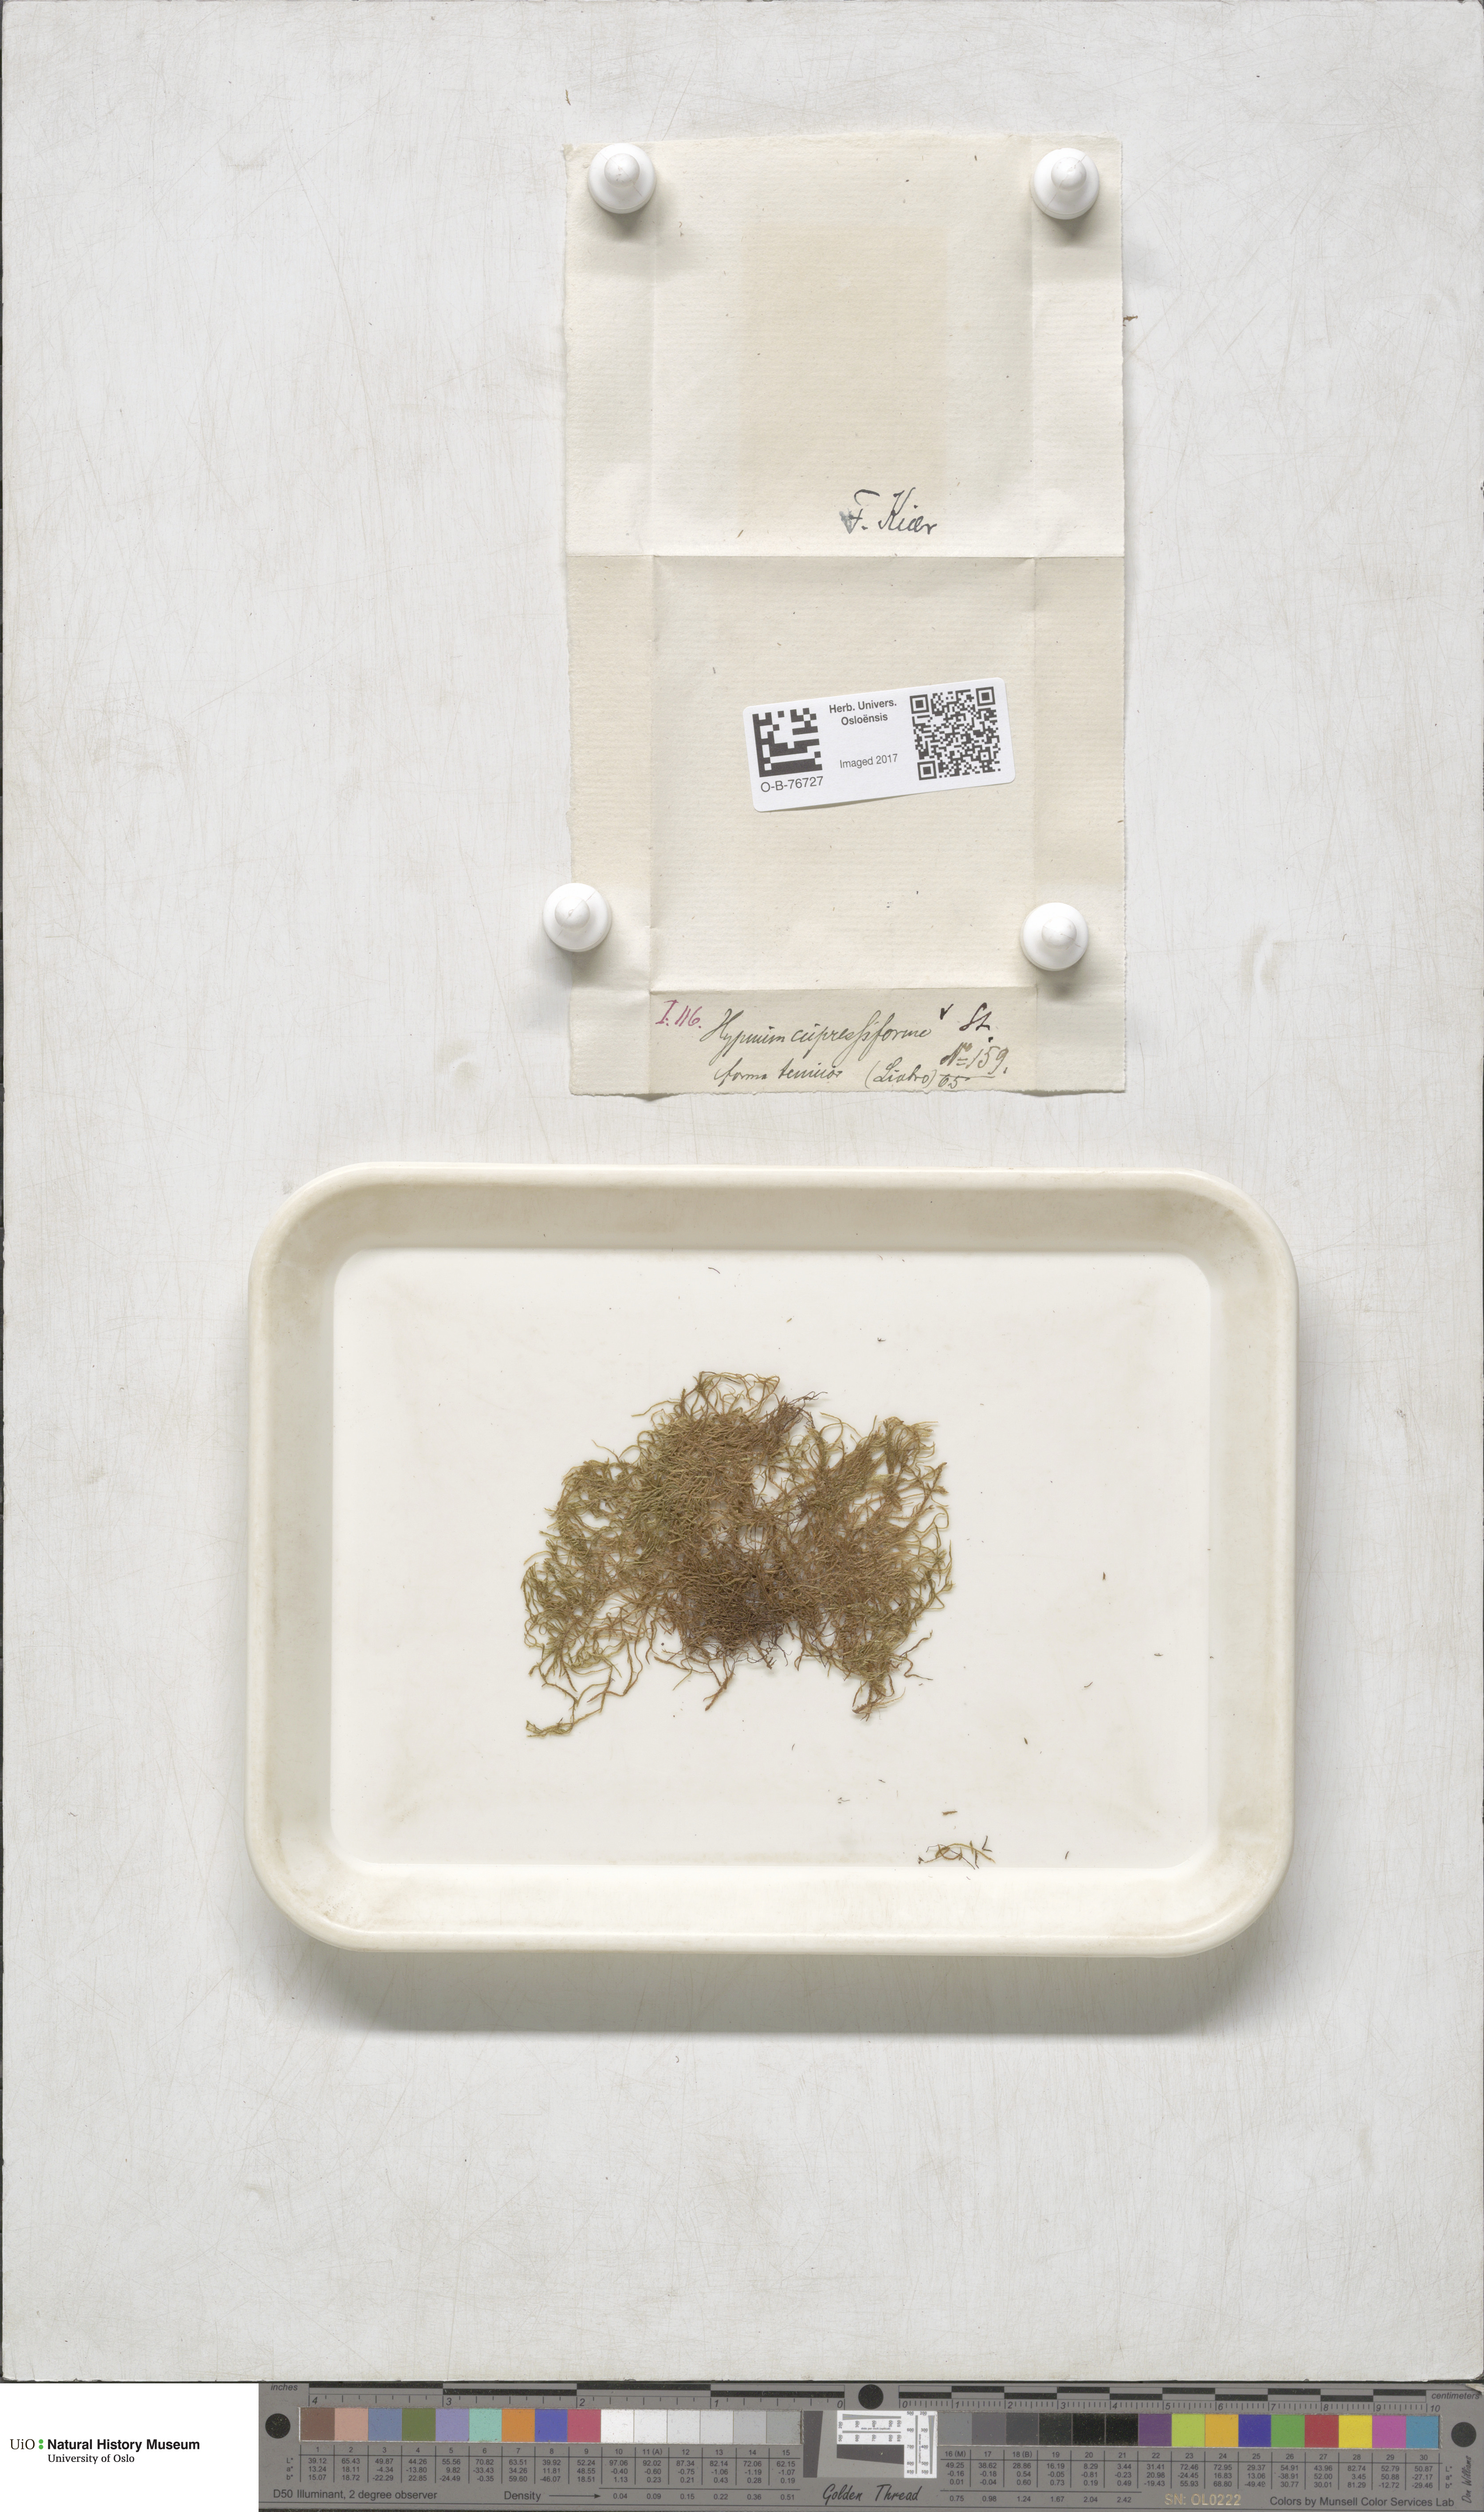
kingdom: Plantae
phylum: Bryophyta
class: Bryopsida
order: Hypnales
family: Hypnaceae
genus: Hypnum
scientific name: Hypnum cupressiforme
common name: Cypress-leaved plait-moss
